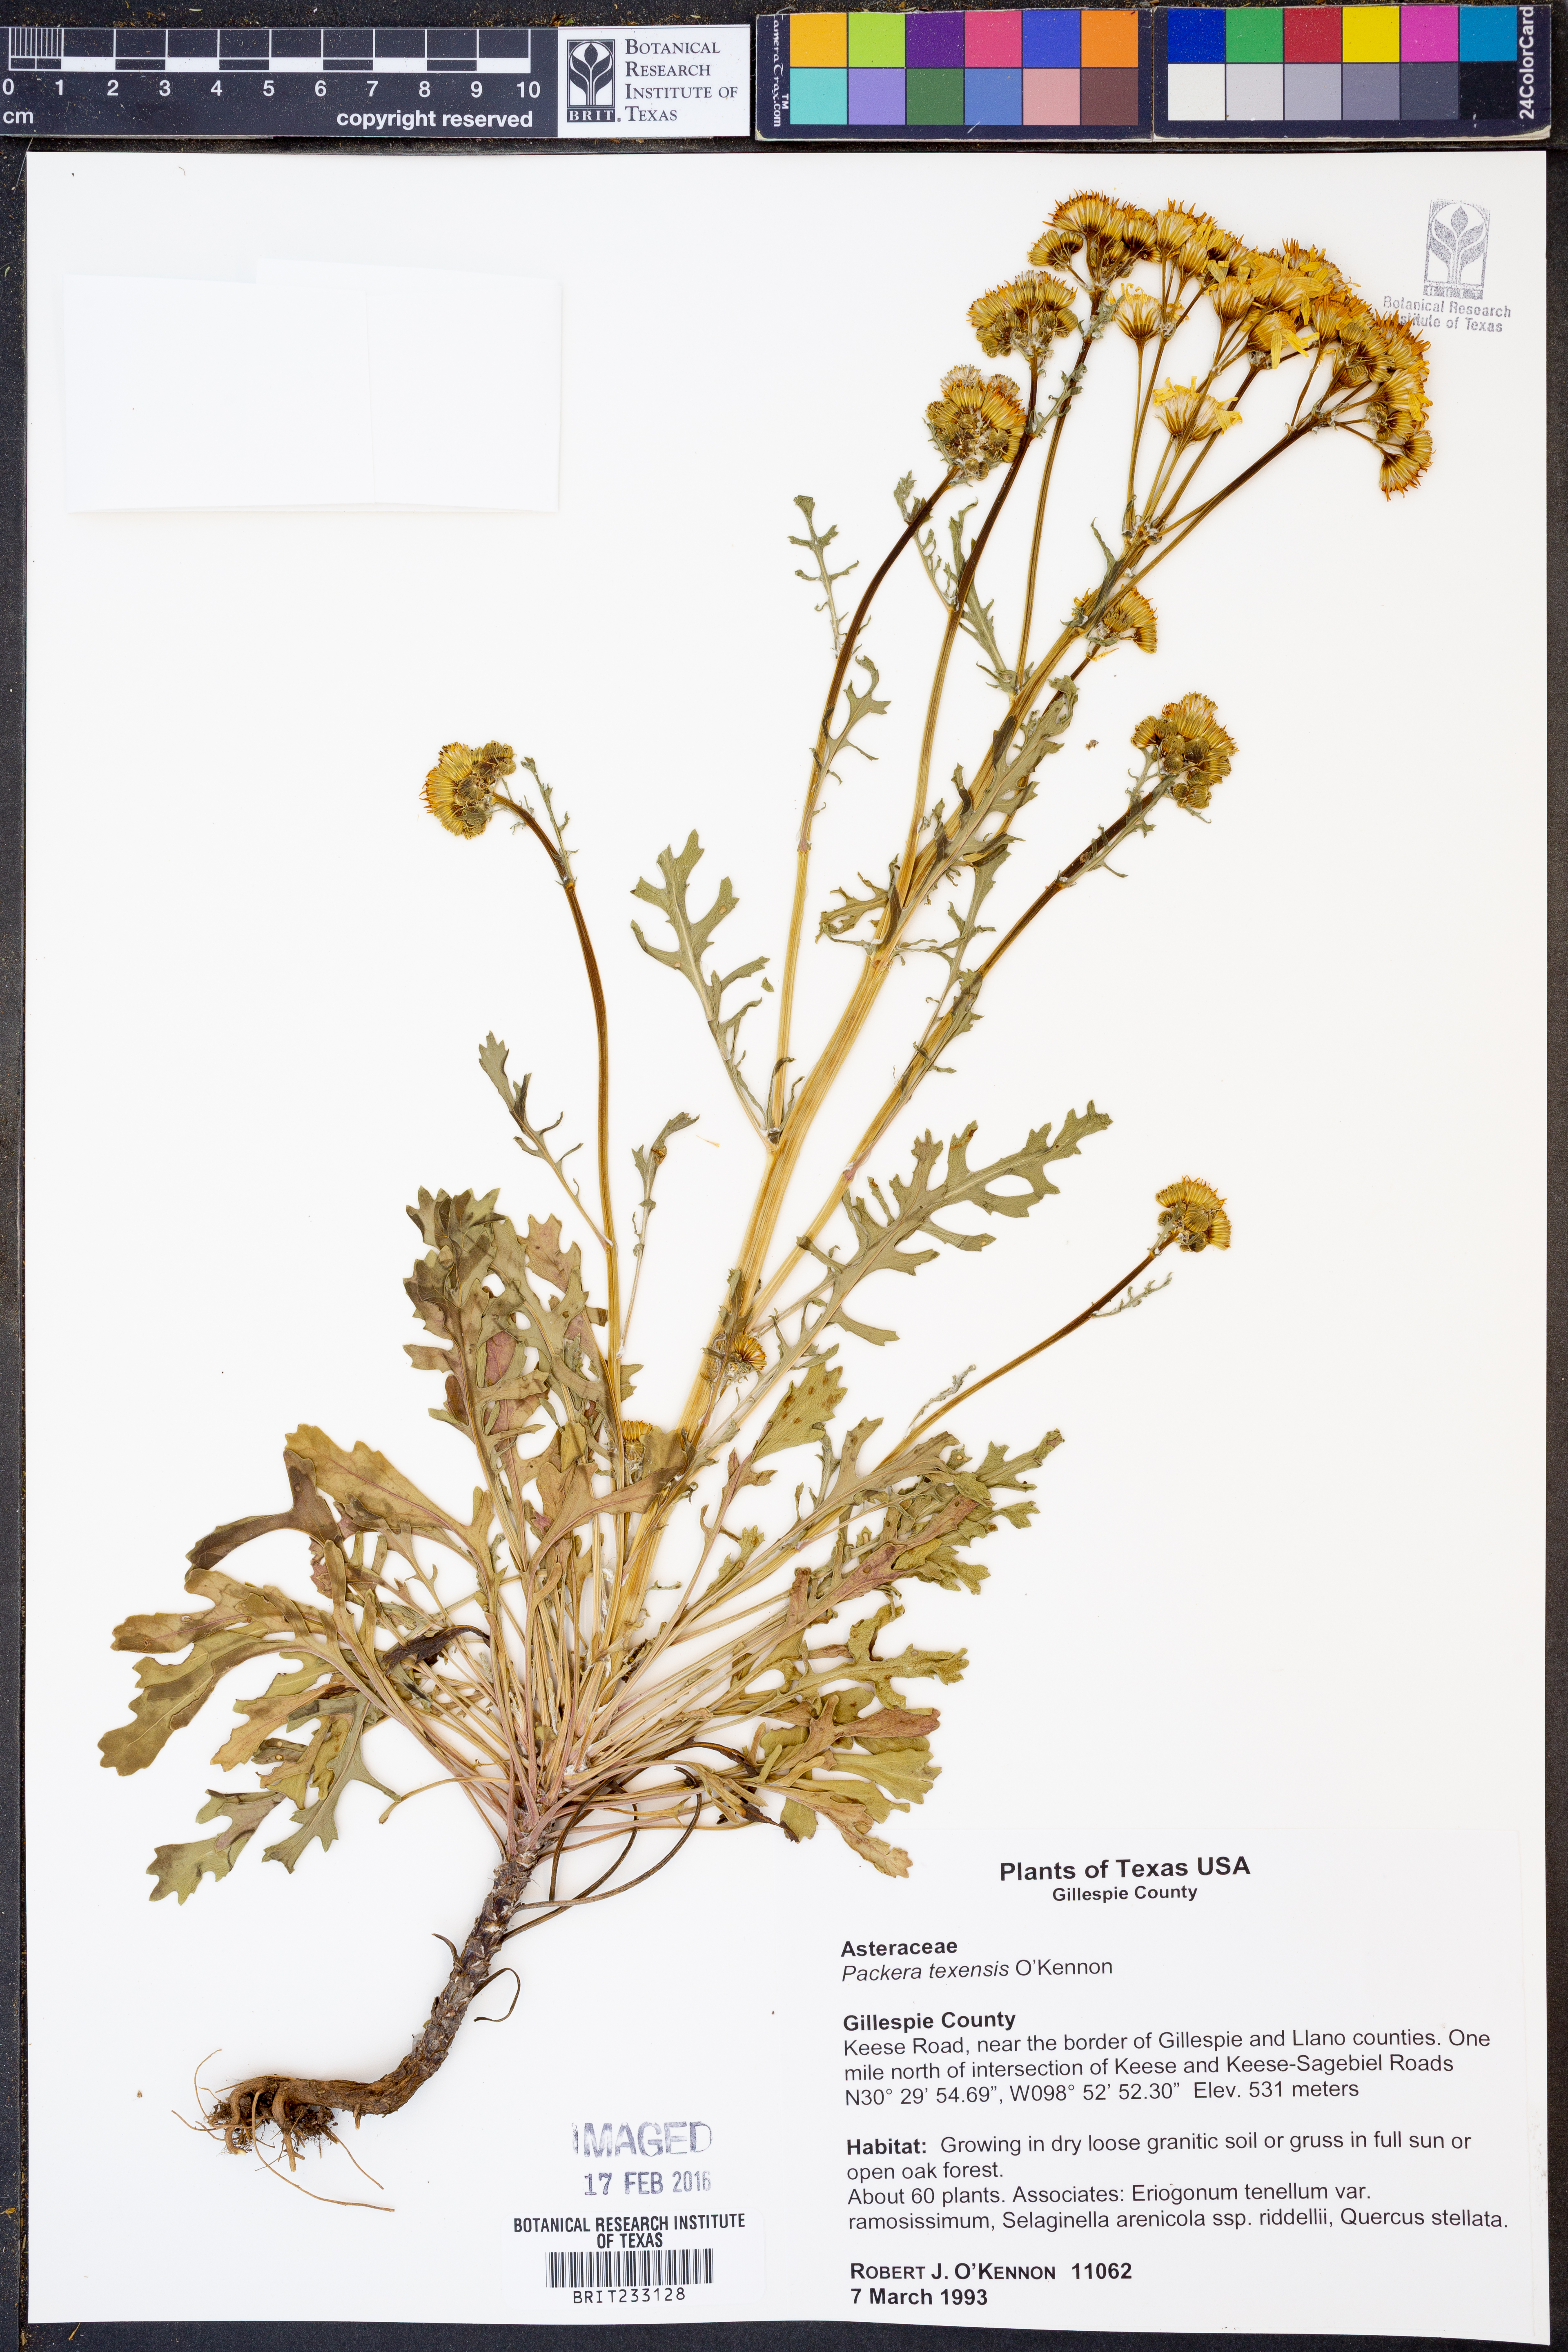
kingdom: Plantae
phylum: Tracheophyta
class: Magnoliopsida
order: Asterales
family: Asteraceae
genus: Packera
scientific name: Packera texensis
